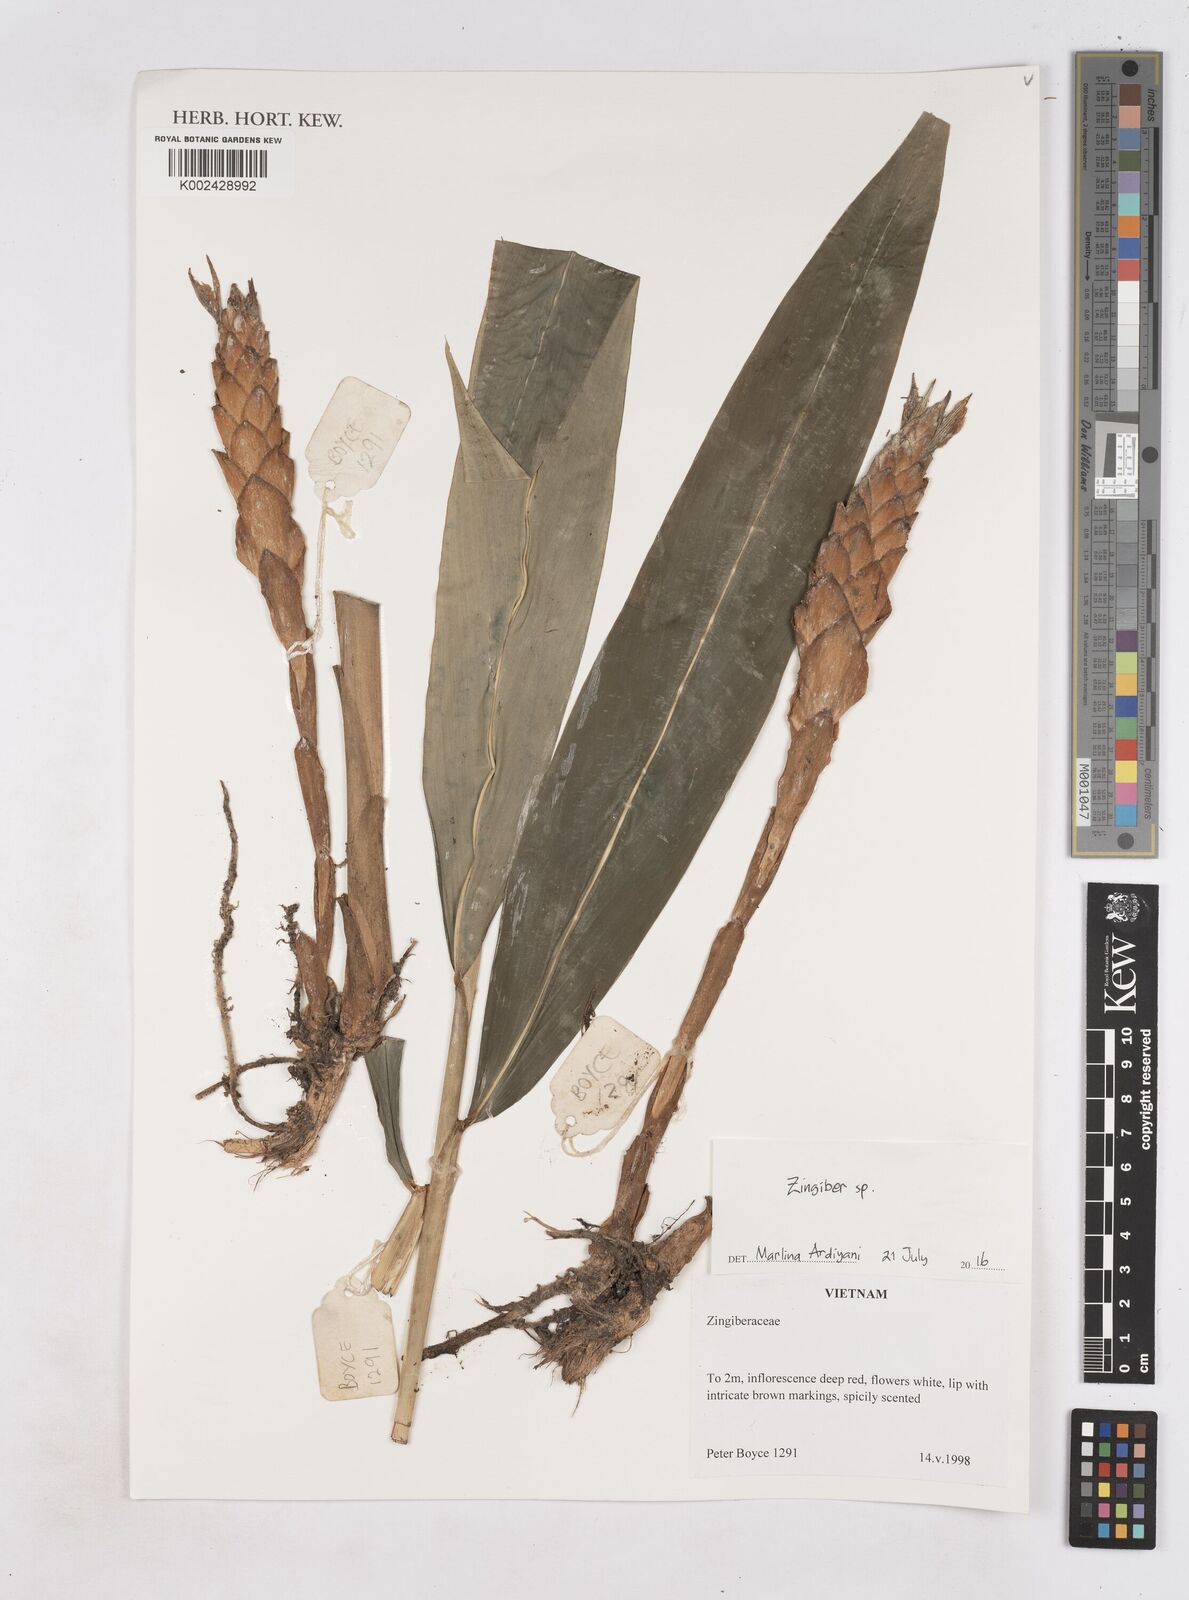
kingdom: Plantae
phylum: Tracheophyta
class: Liliopsida
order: Zingiberales
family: Zingiberaceae
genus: Zingiber
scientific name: Zingiber
